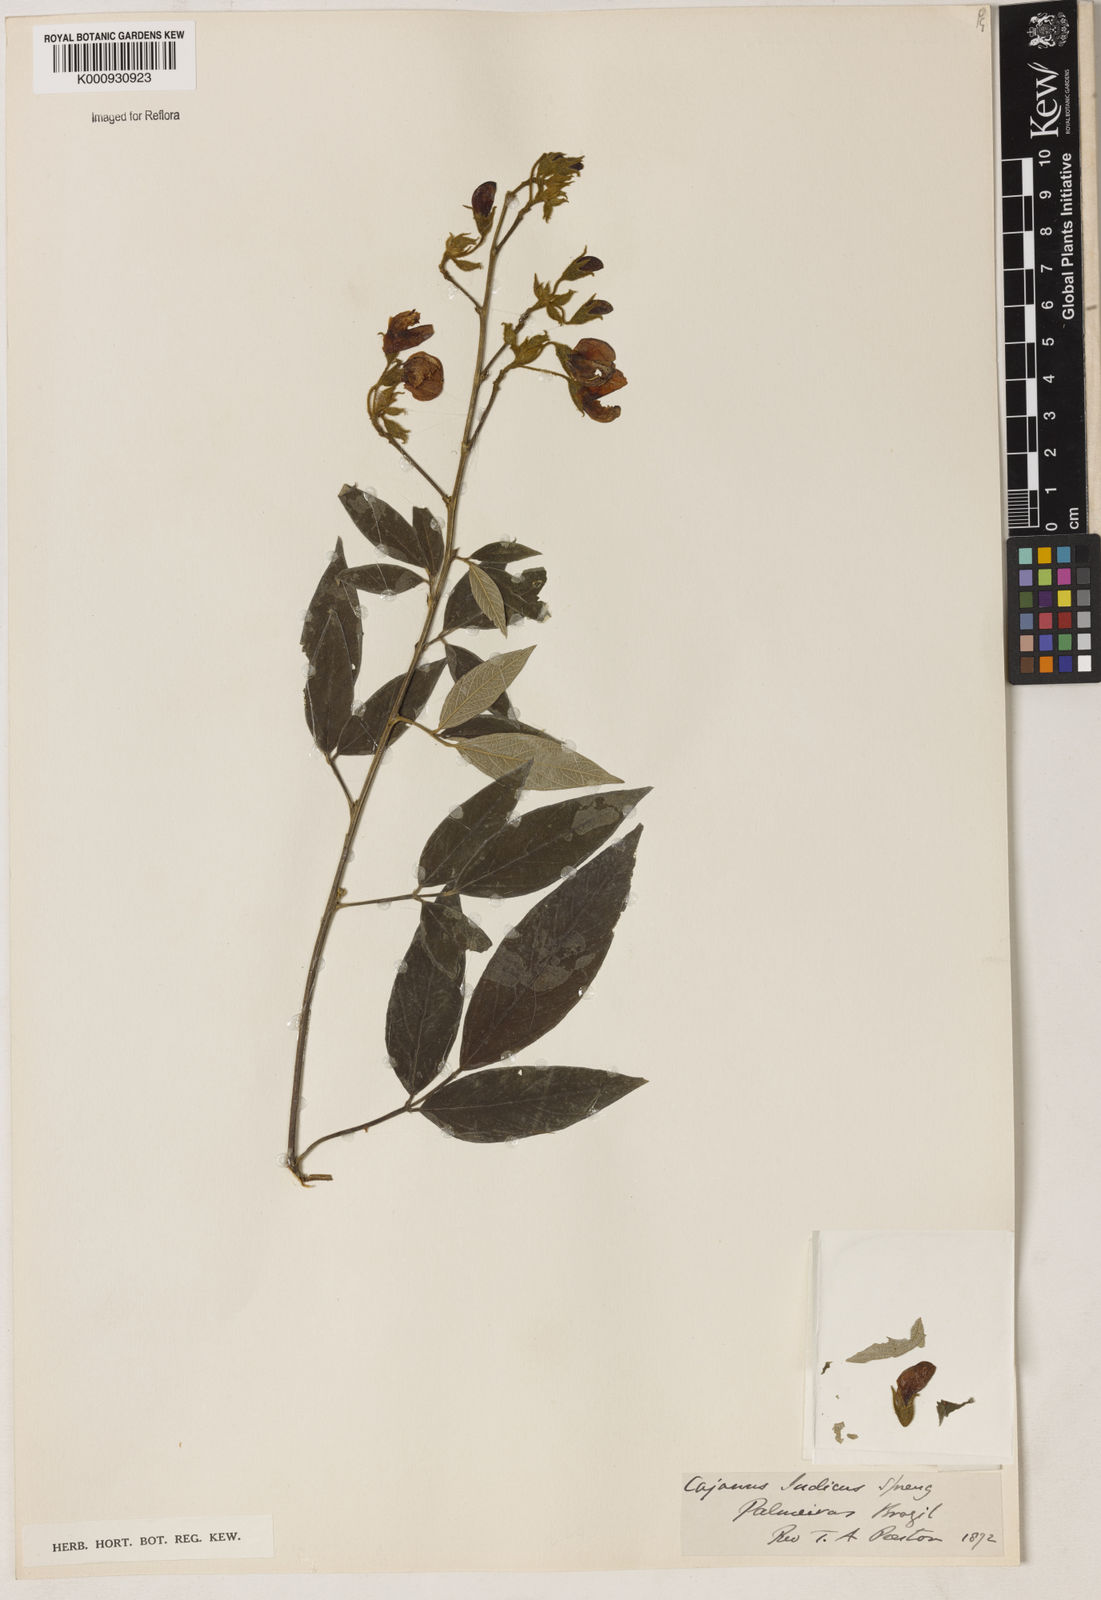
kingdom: Plantae
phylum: Tracheophyta
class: Magnoliopsida
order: Fabales
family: Fabaceae
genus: Cajanus
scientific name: Cajanus
